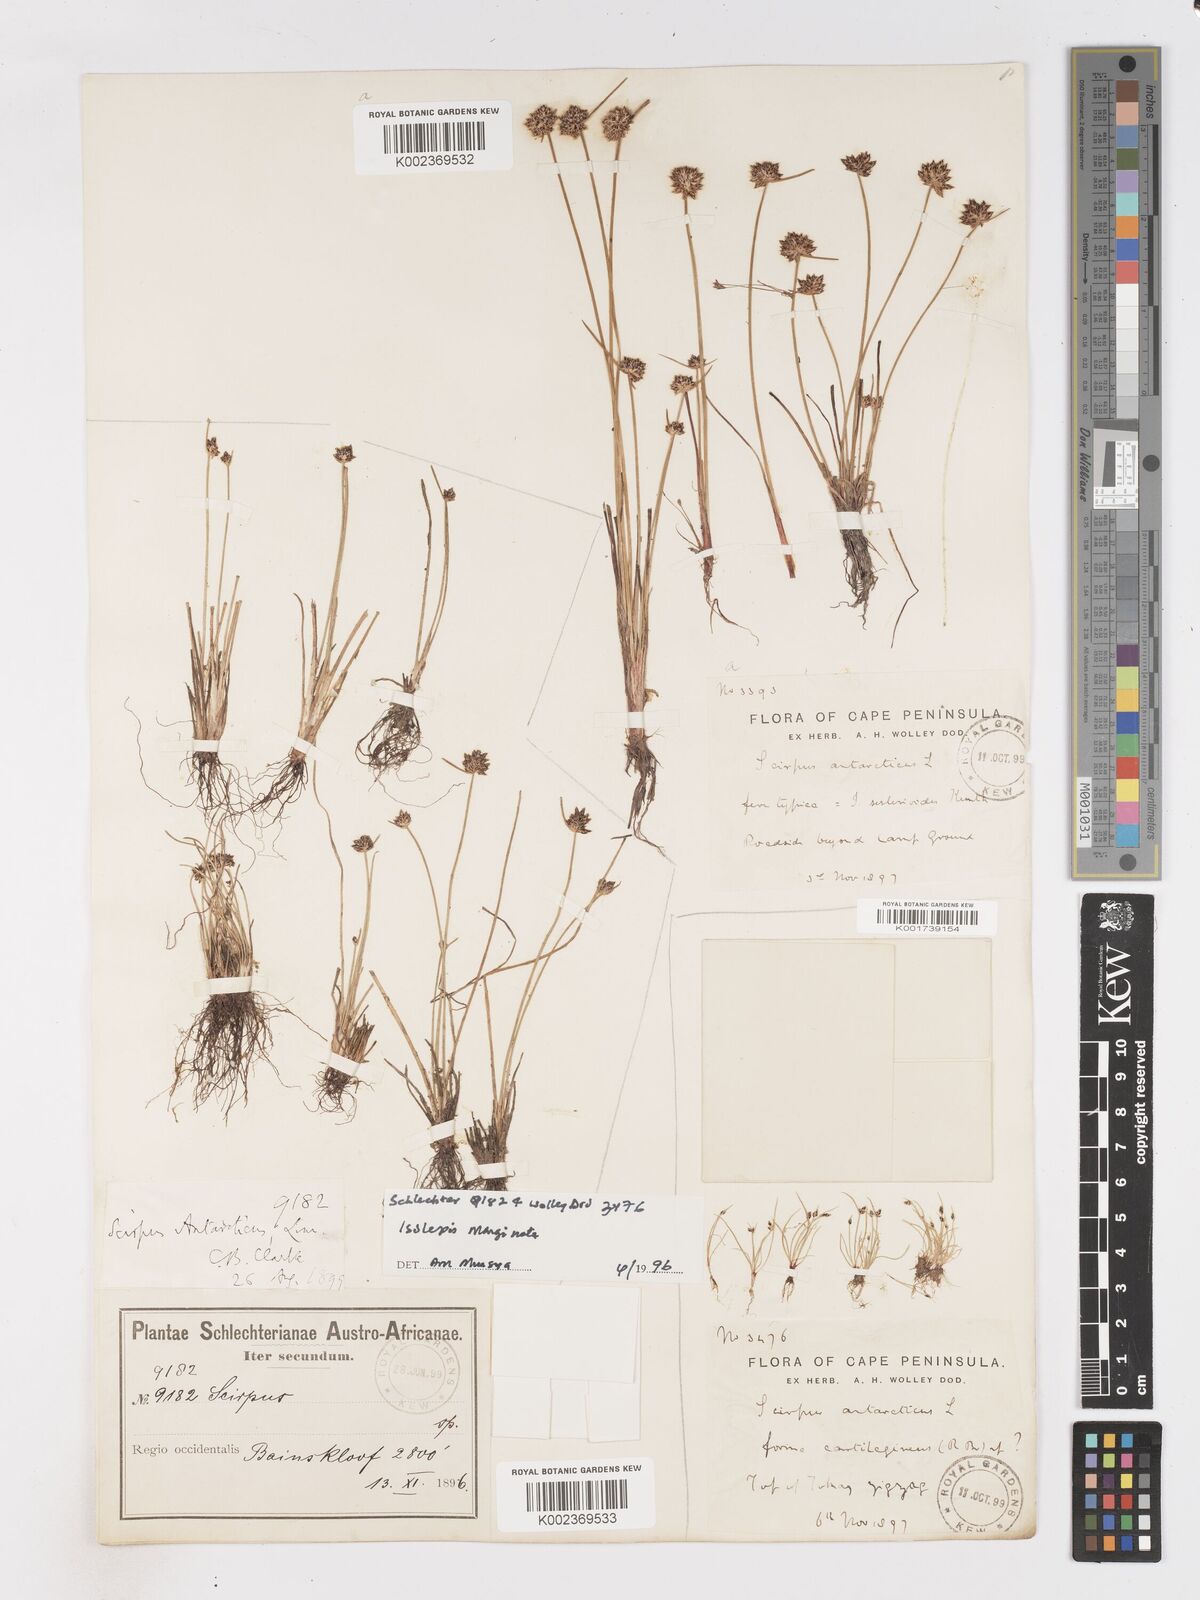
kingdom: Plantae
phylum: Tracheophyta
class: Liliopsida
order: Poales
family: Cyperaceae
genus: Isolepis
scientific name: Isolepis antarctica
